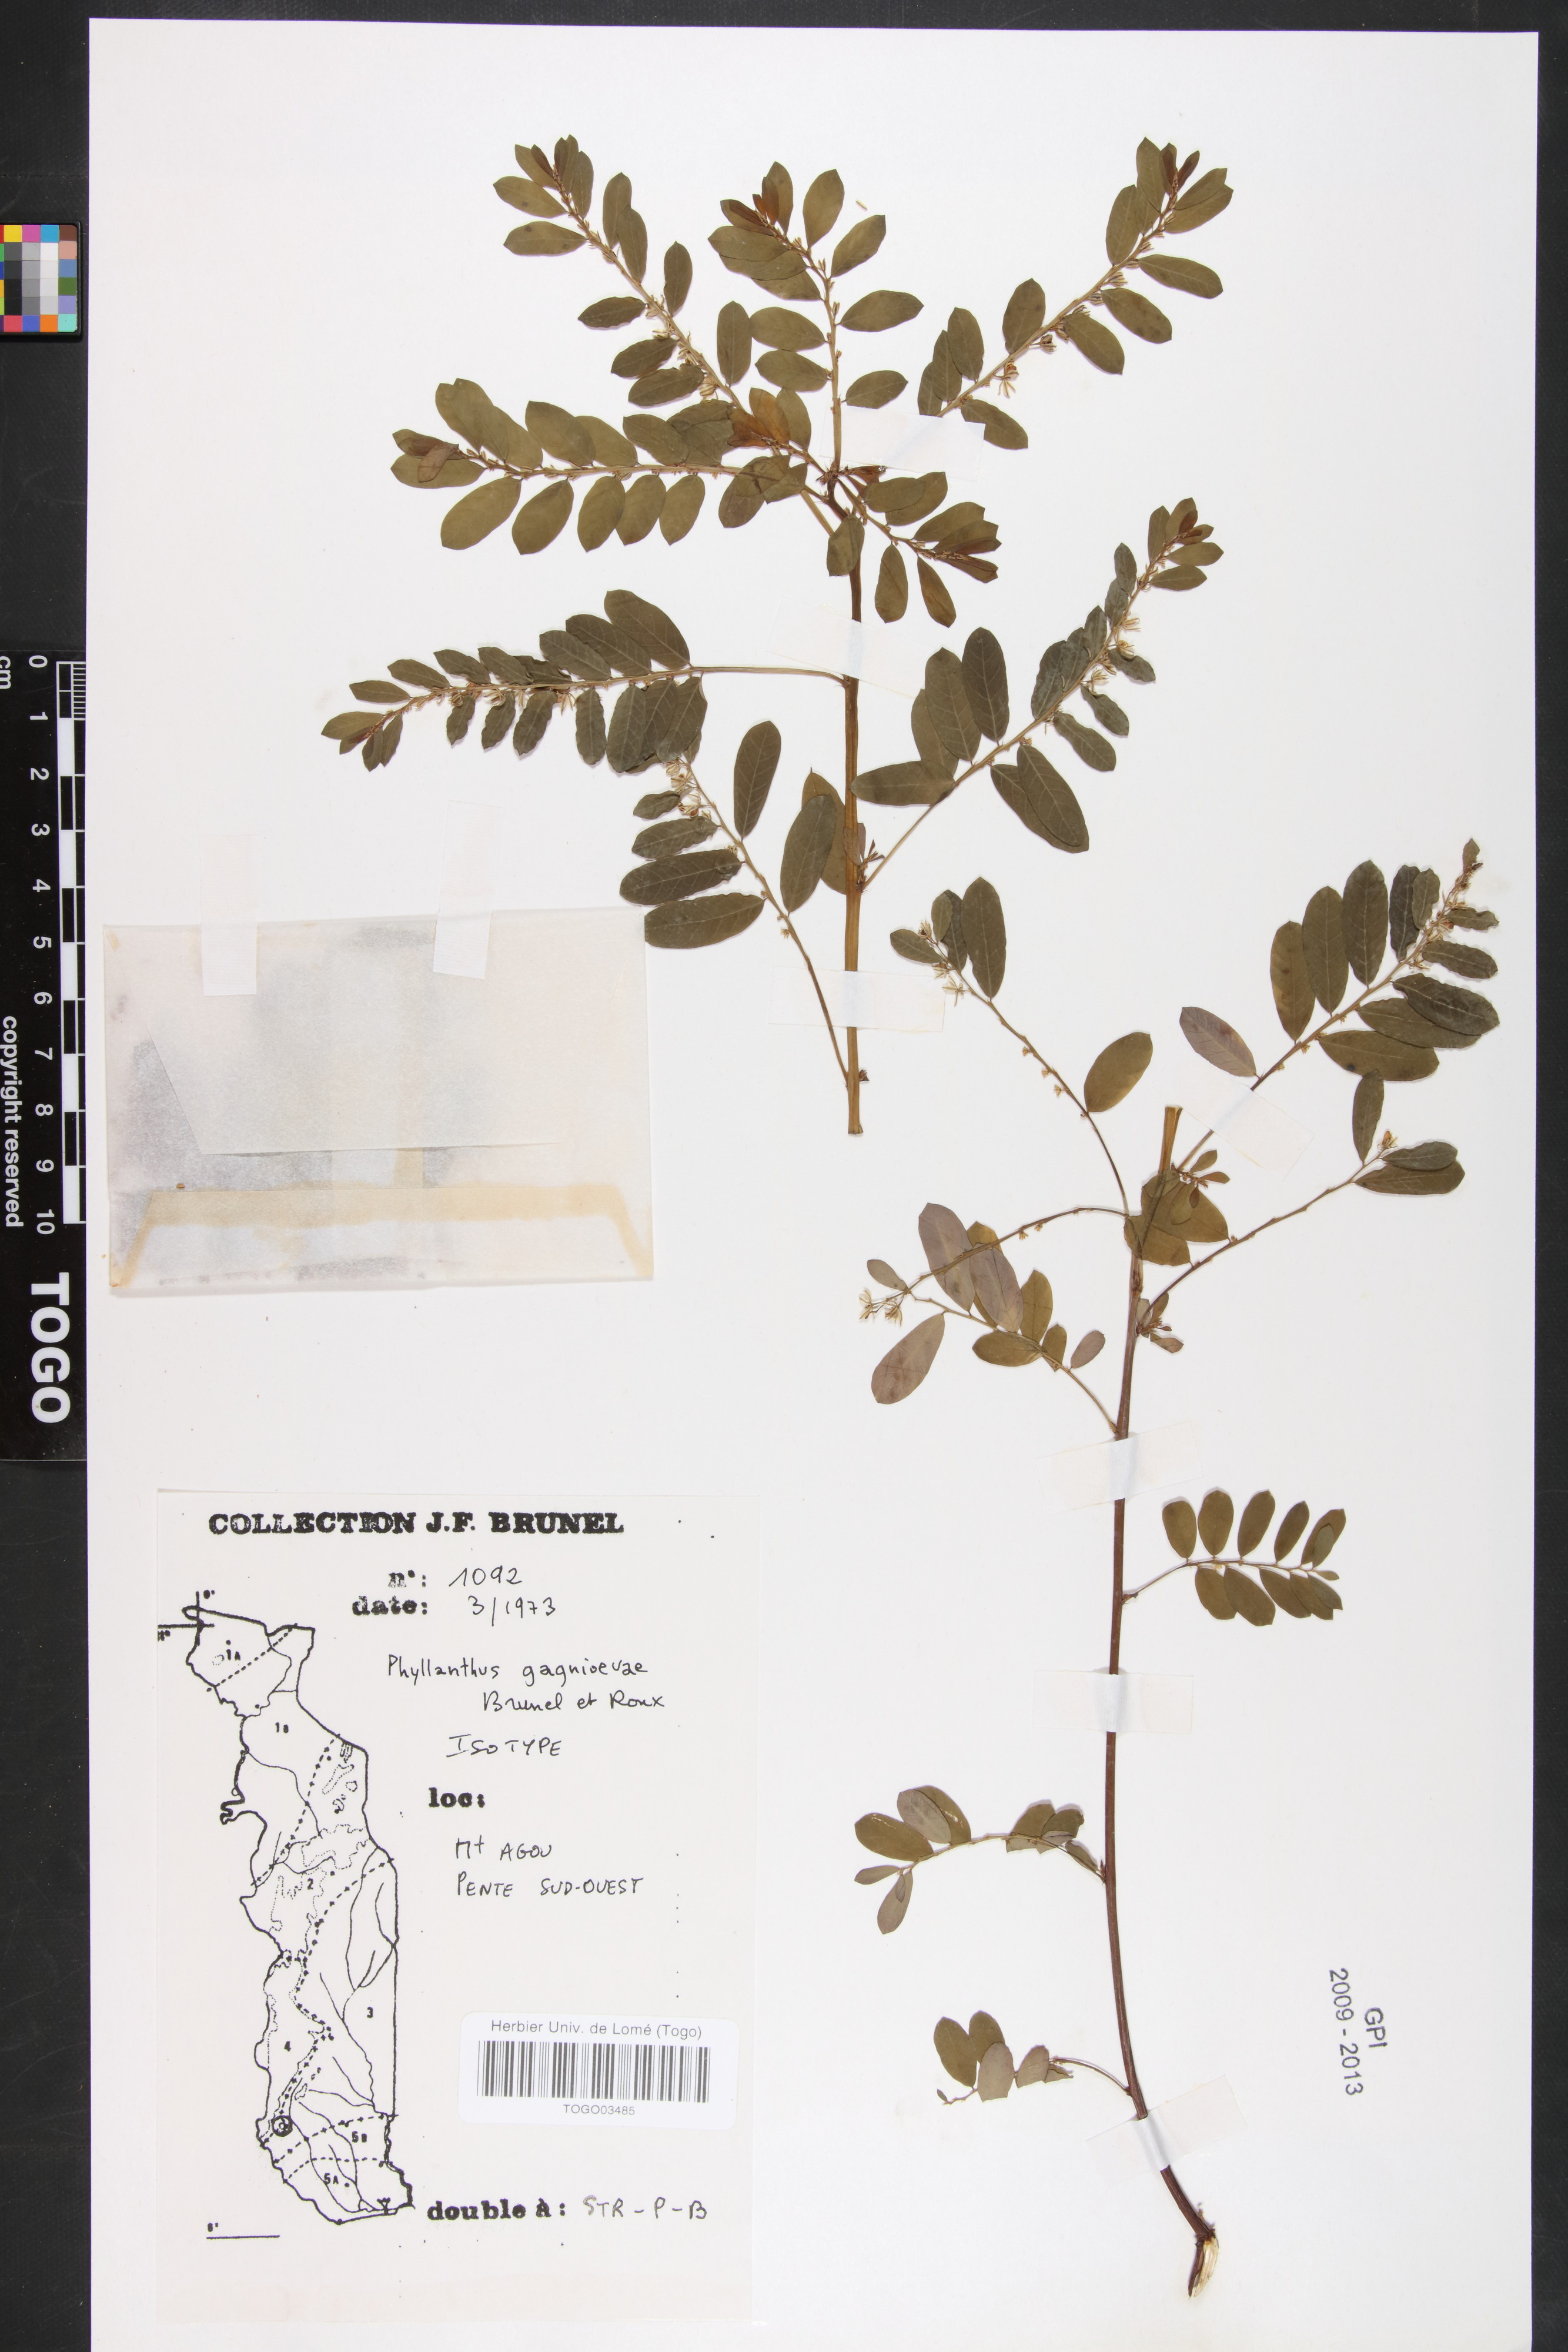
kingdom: Plantae
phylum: Tracheophyta
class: Magnoliopsida
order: Malpighiales
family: Phyllanthaceae
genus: Phyllanthus
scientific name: Phyllanthus gagnioevae
